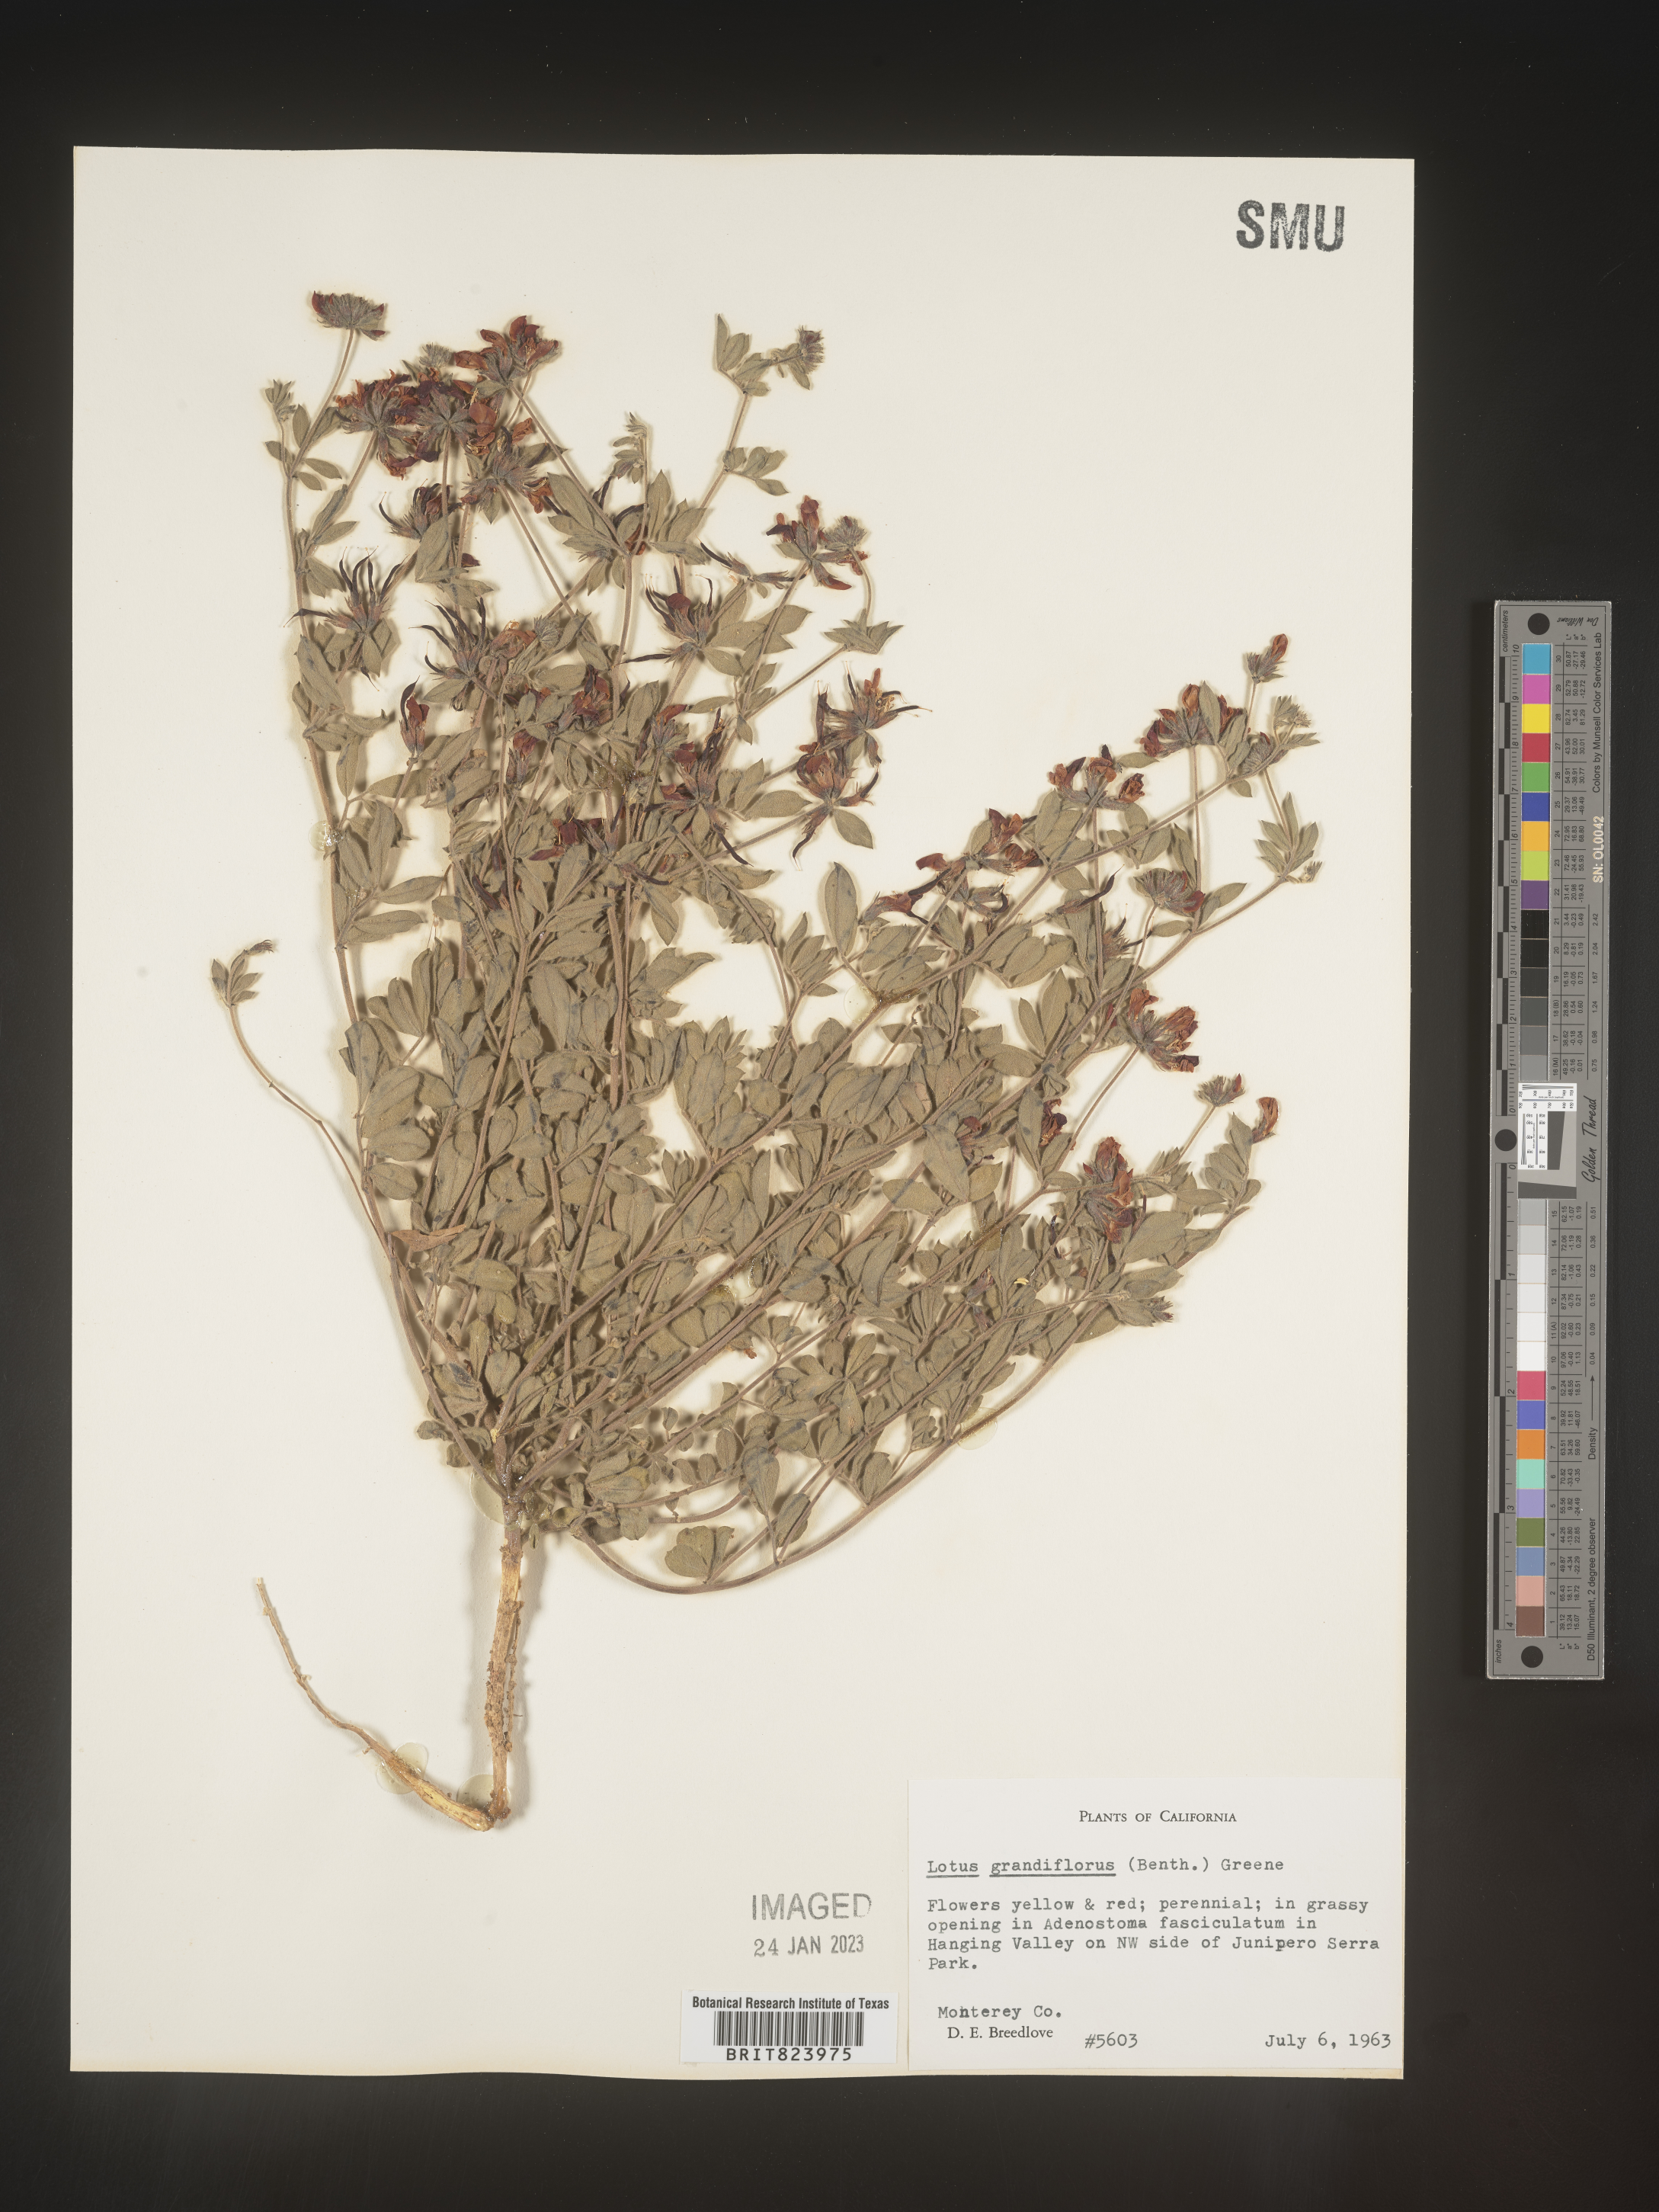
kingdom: Plantae
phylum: Tracheophyta
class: Magnoliopsida
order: Fabales
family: Fabaceae
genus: Lotus
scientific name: Lotus
